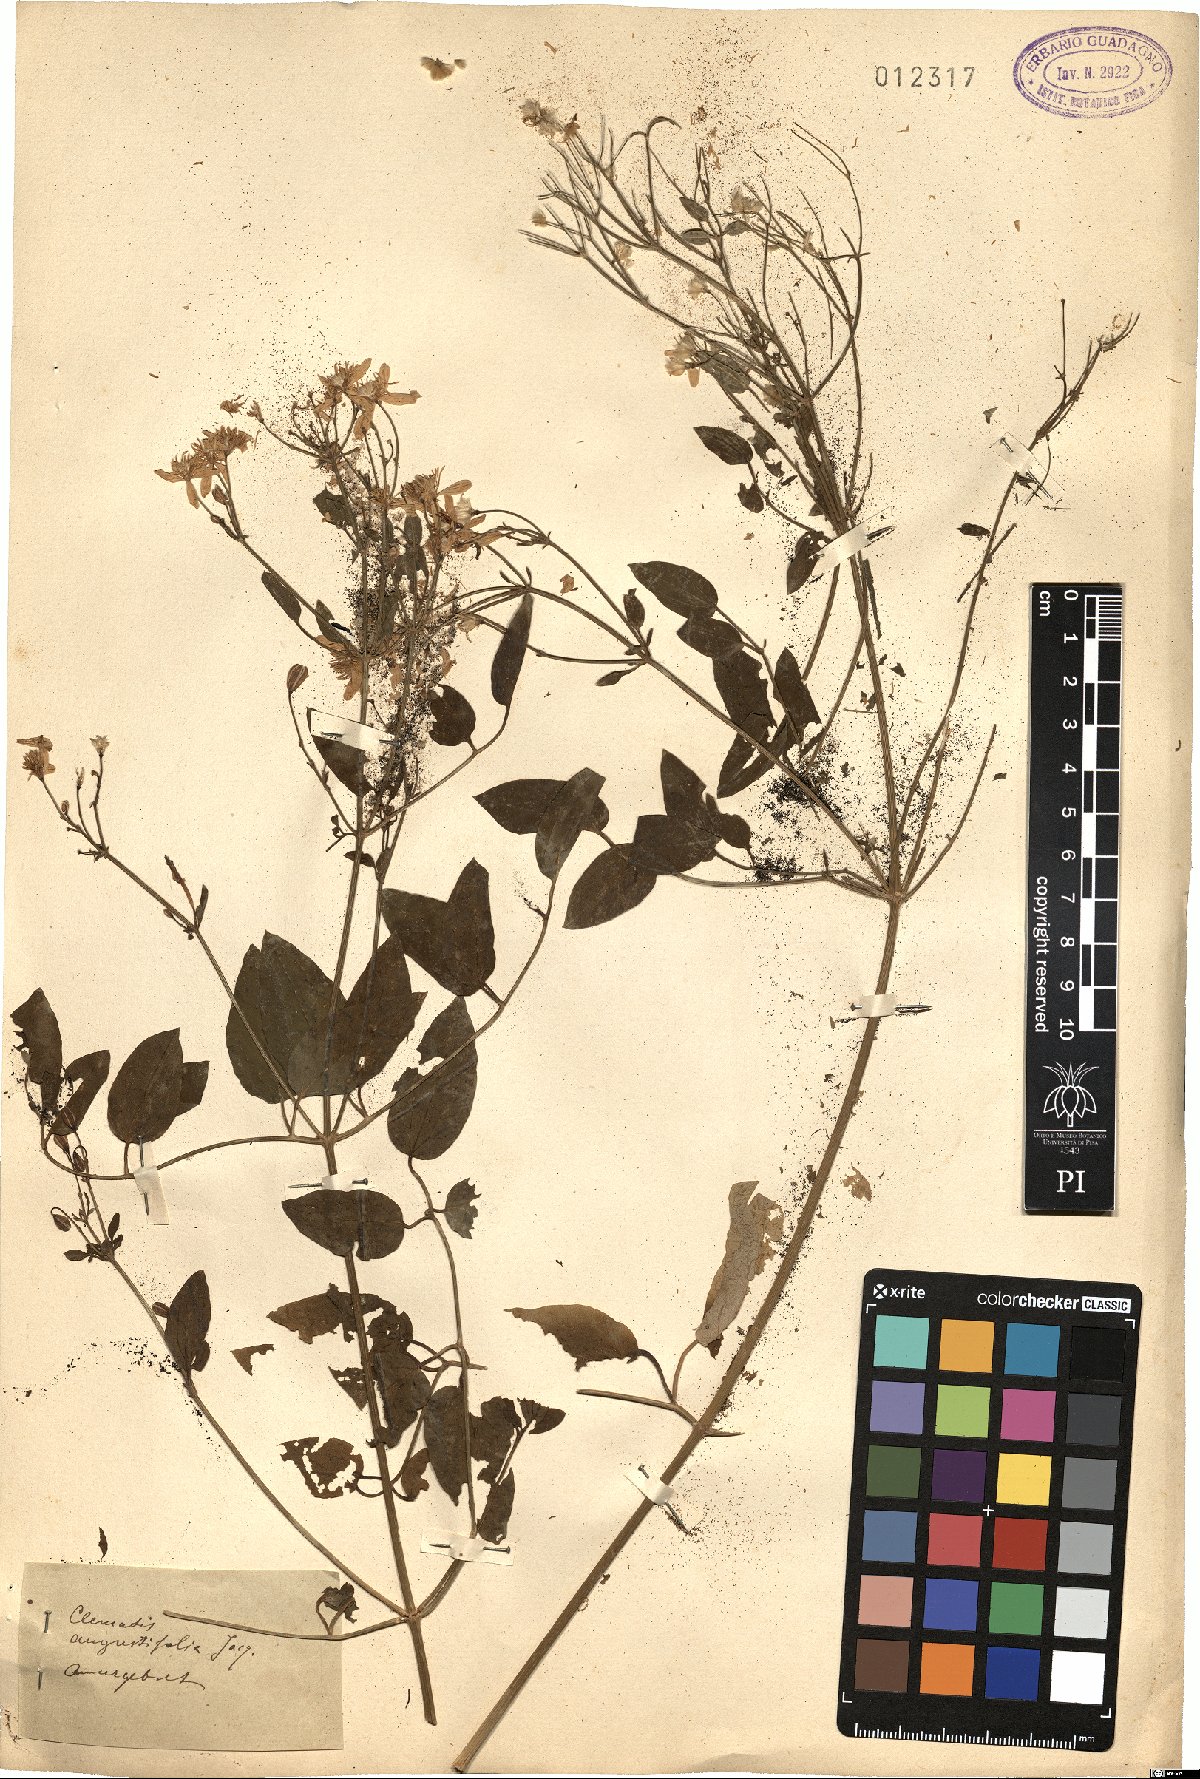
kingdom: Plantae
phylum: Tracheophyta
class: Magnoliopsida
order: Ranunculales
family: Ranunculaceae
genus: Clematis
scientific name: Clematis hexapetala
